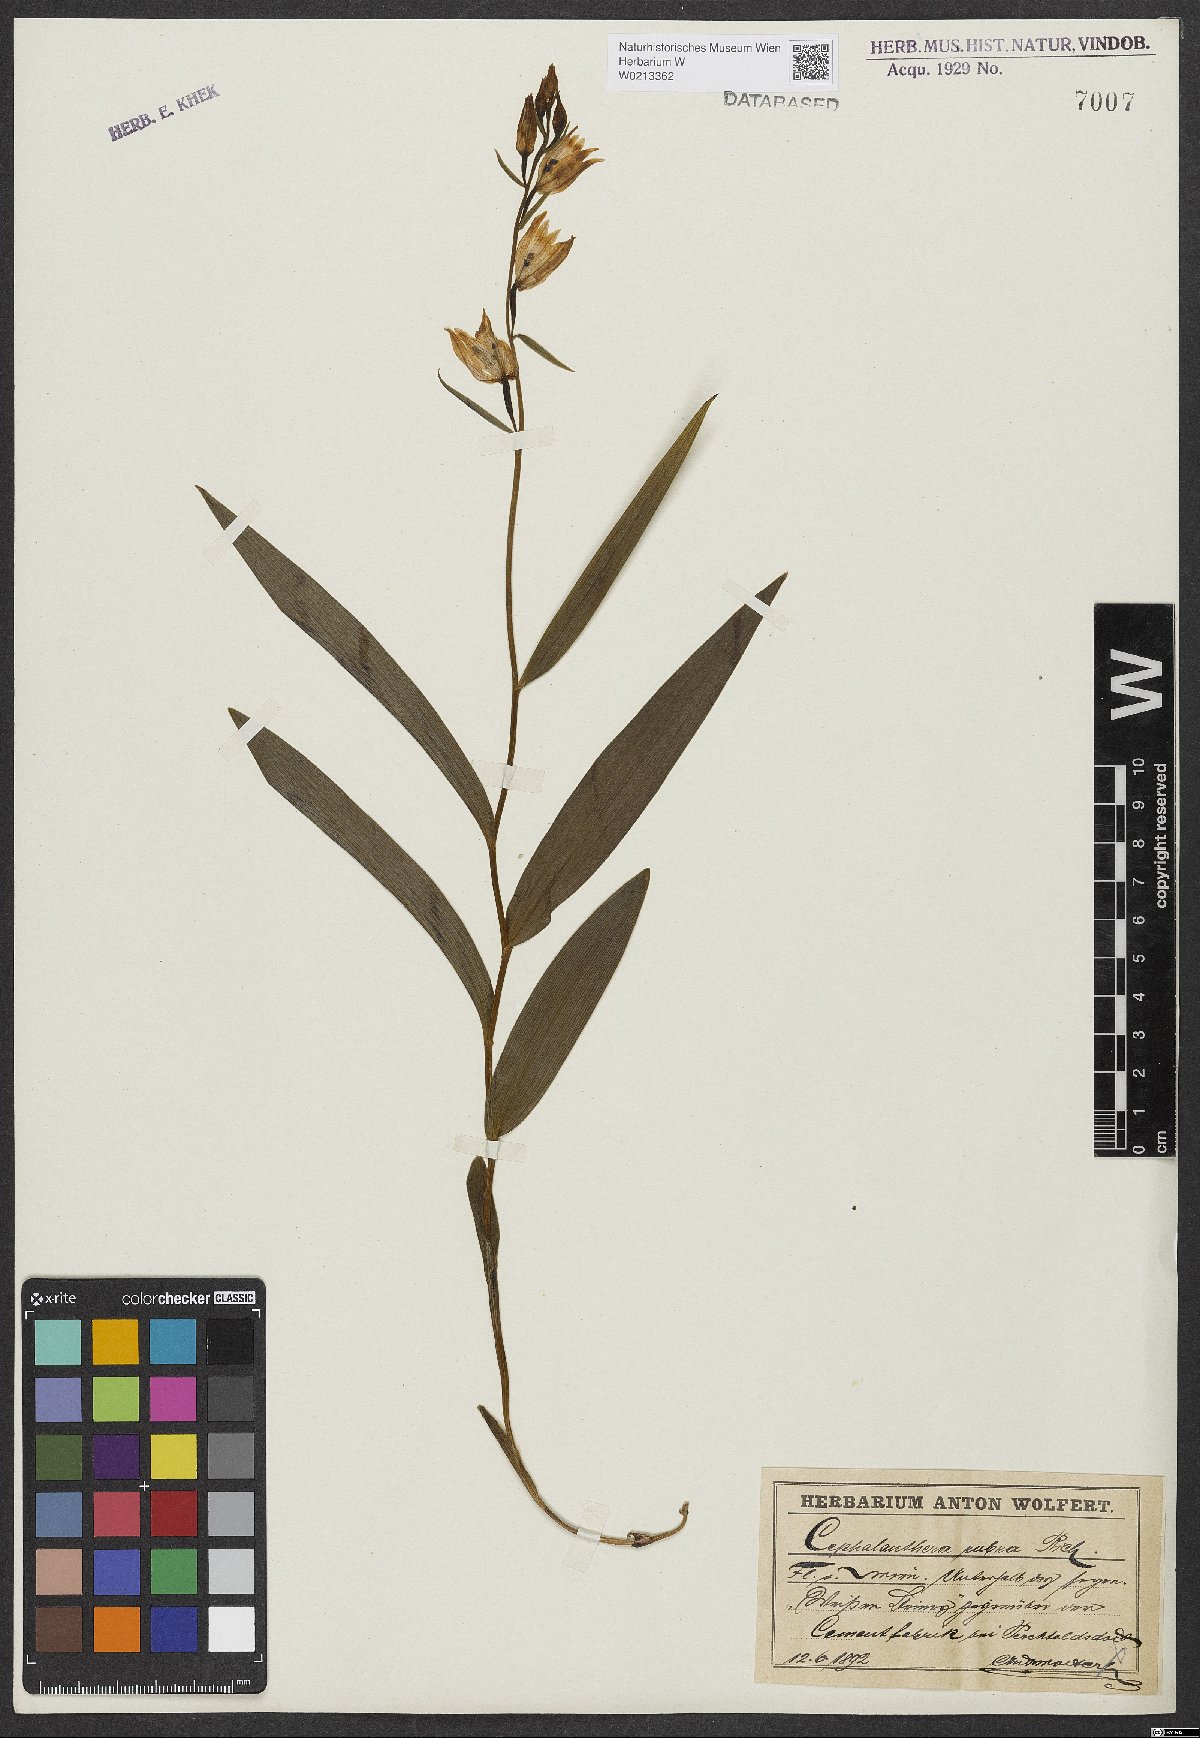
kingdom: Plantae
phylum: Tracheophyta
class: Liliopsida
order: Asparagales
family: Orchidaceae
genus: Cephalanthera
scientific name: Cephalanthera rubra
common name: Red helleborine
